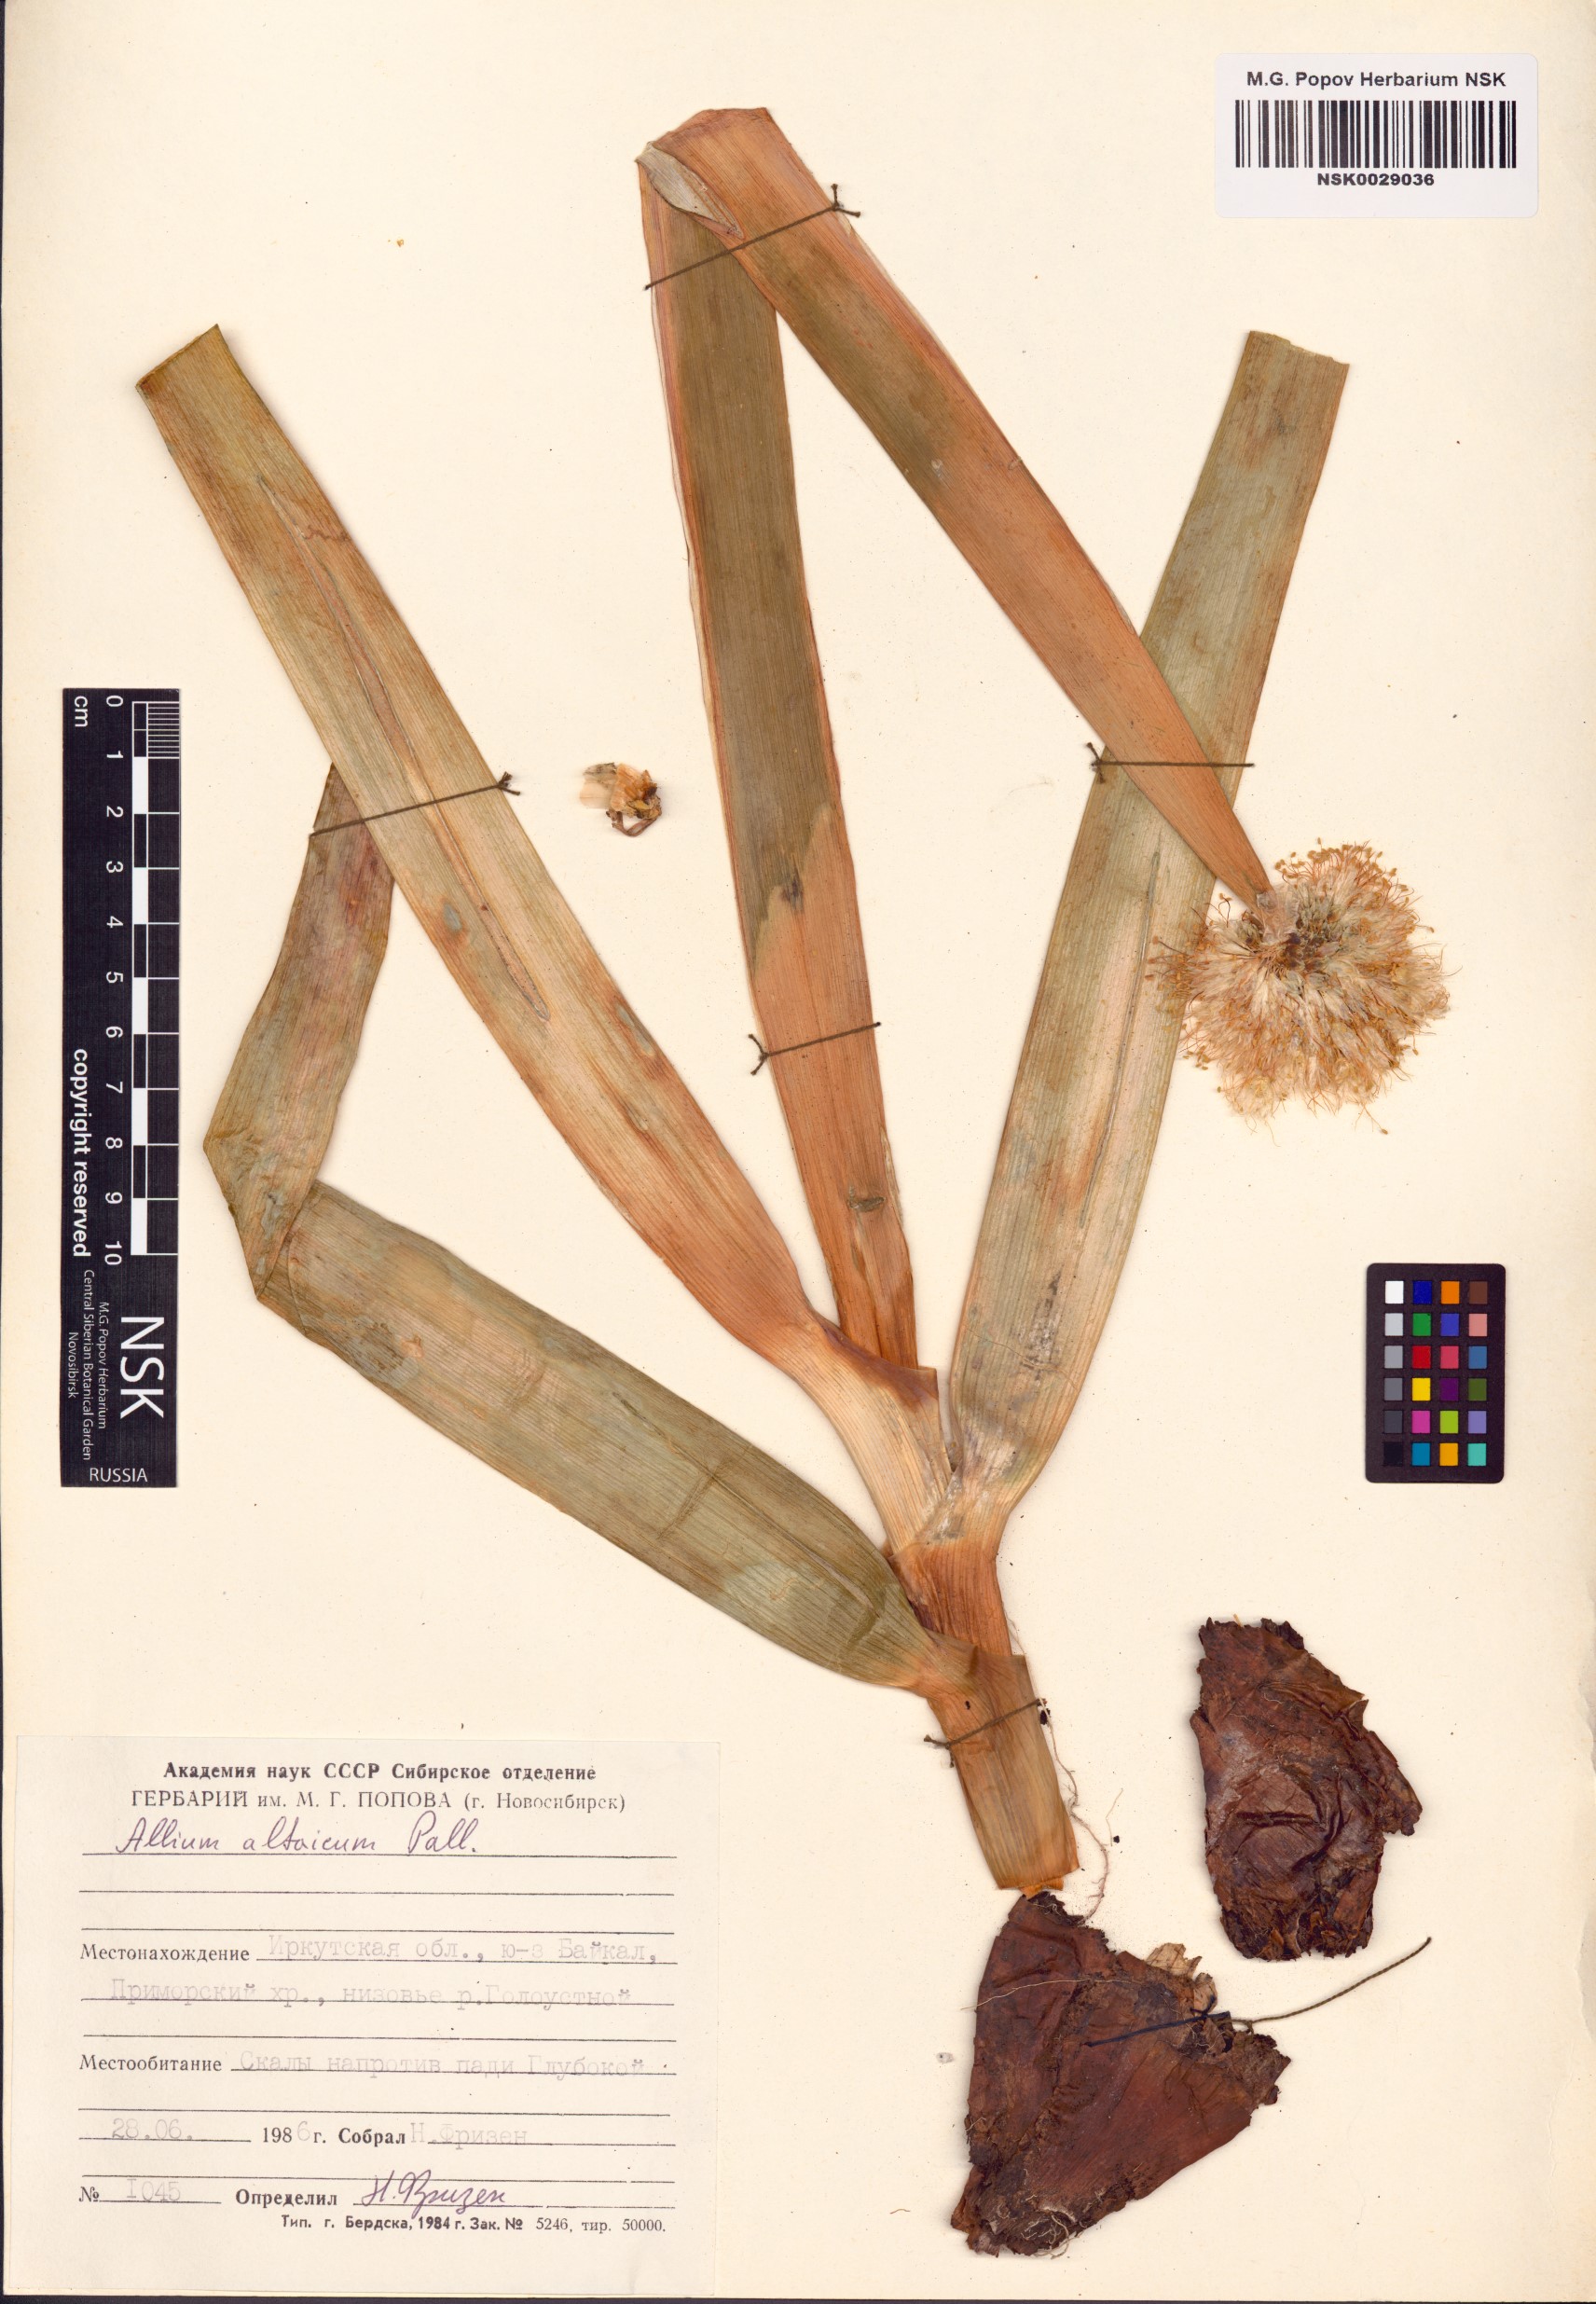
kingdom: Plantae
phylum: Tracheophyta
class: Liliopsida
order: Asparagales
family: Amaryllidaceae
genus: Allium
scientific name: Allium altaicum
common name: Altai onion
